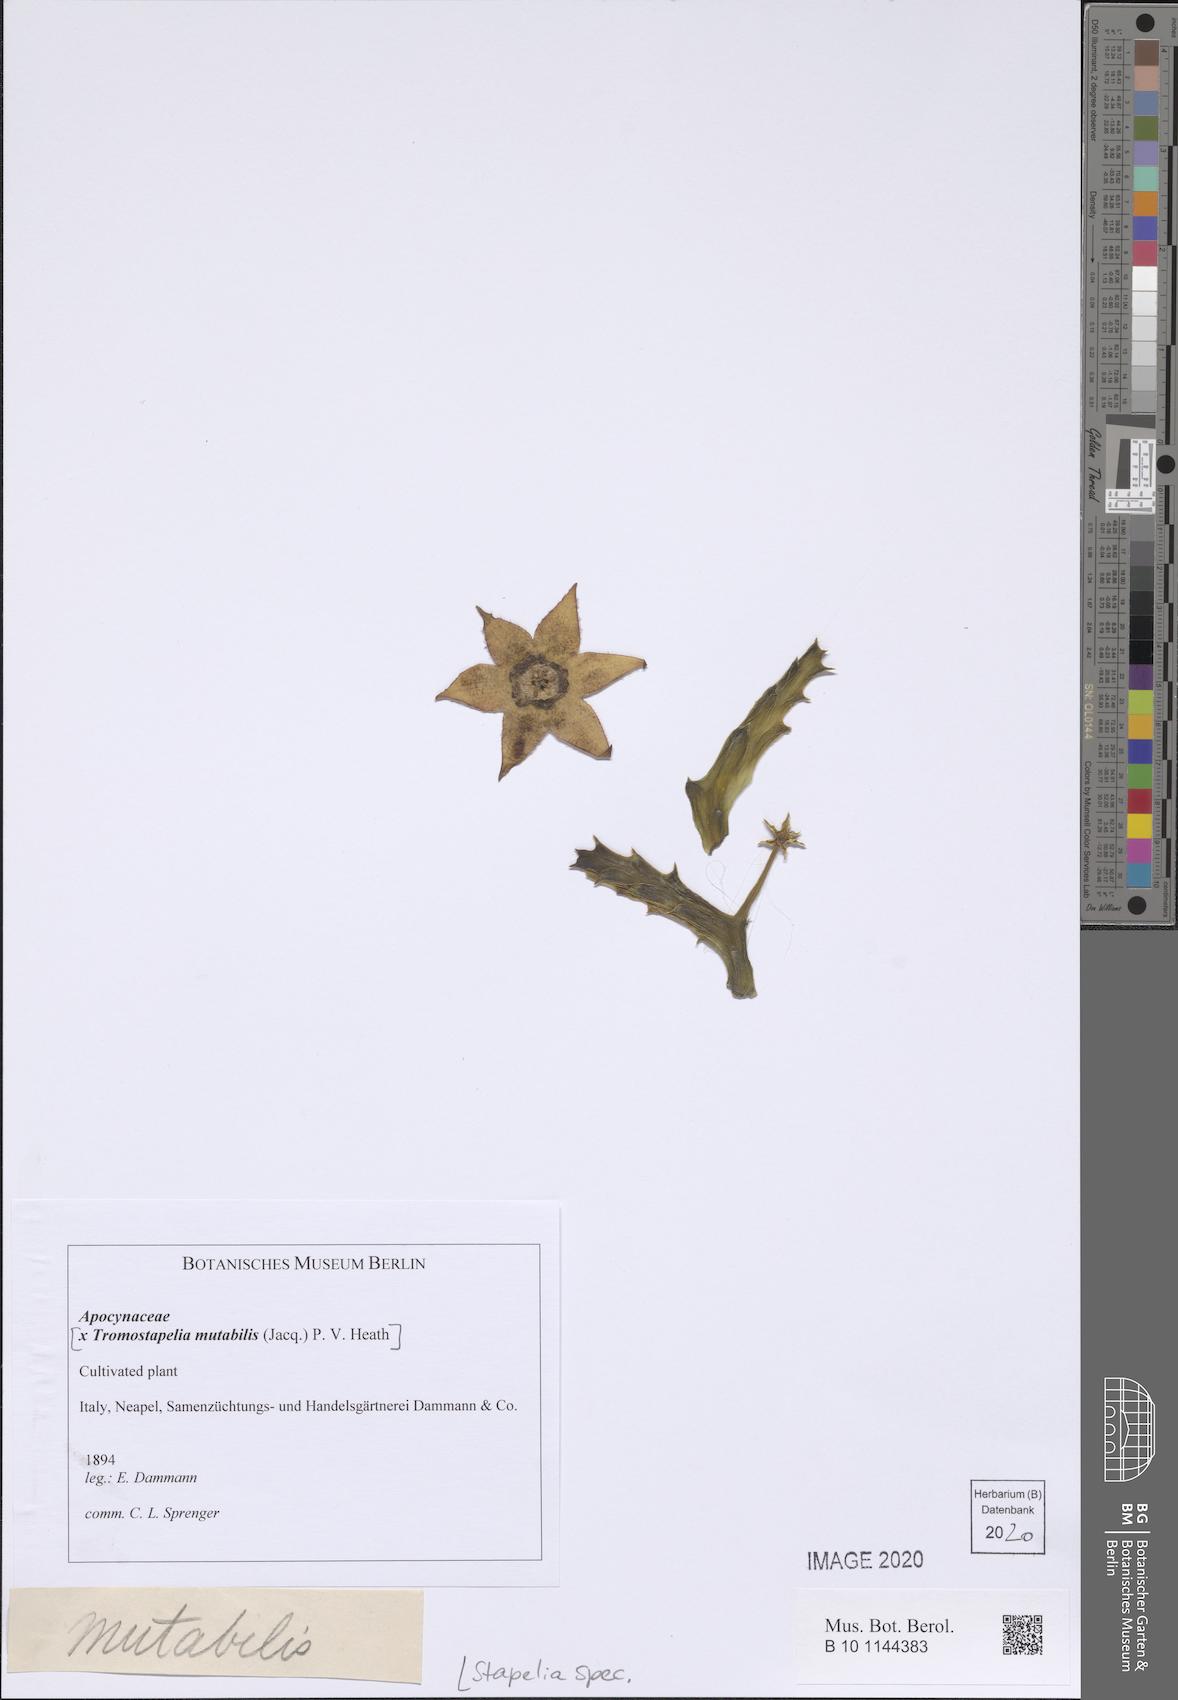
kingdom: Plantae
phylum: Tracheophyta
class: Magnoliopsida
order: Gentianales
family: Apocynaceae
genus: Stapelia
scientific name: Stapelia
